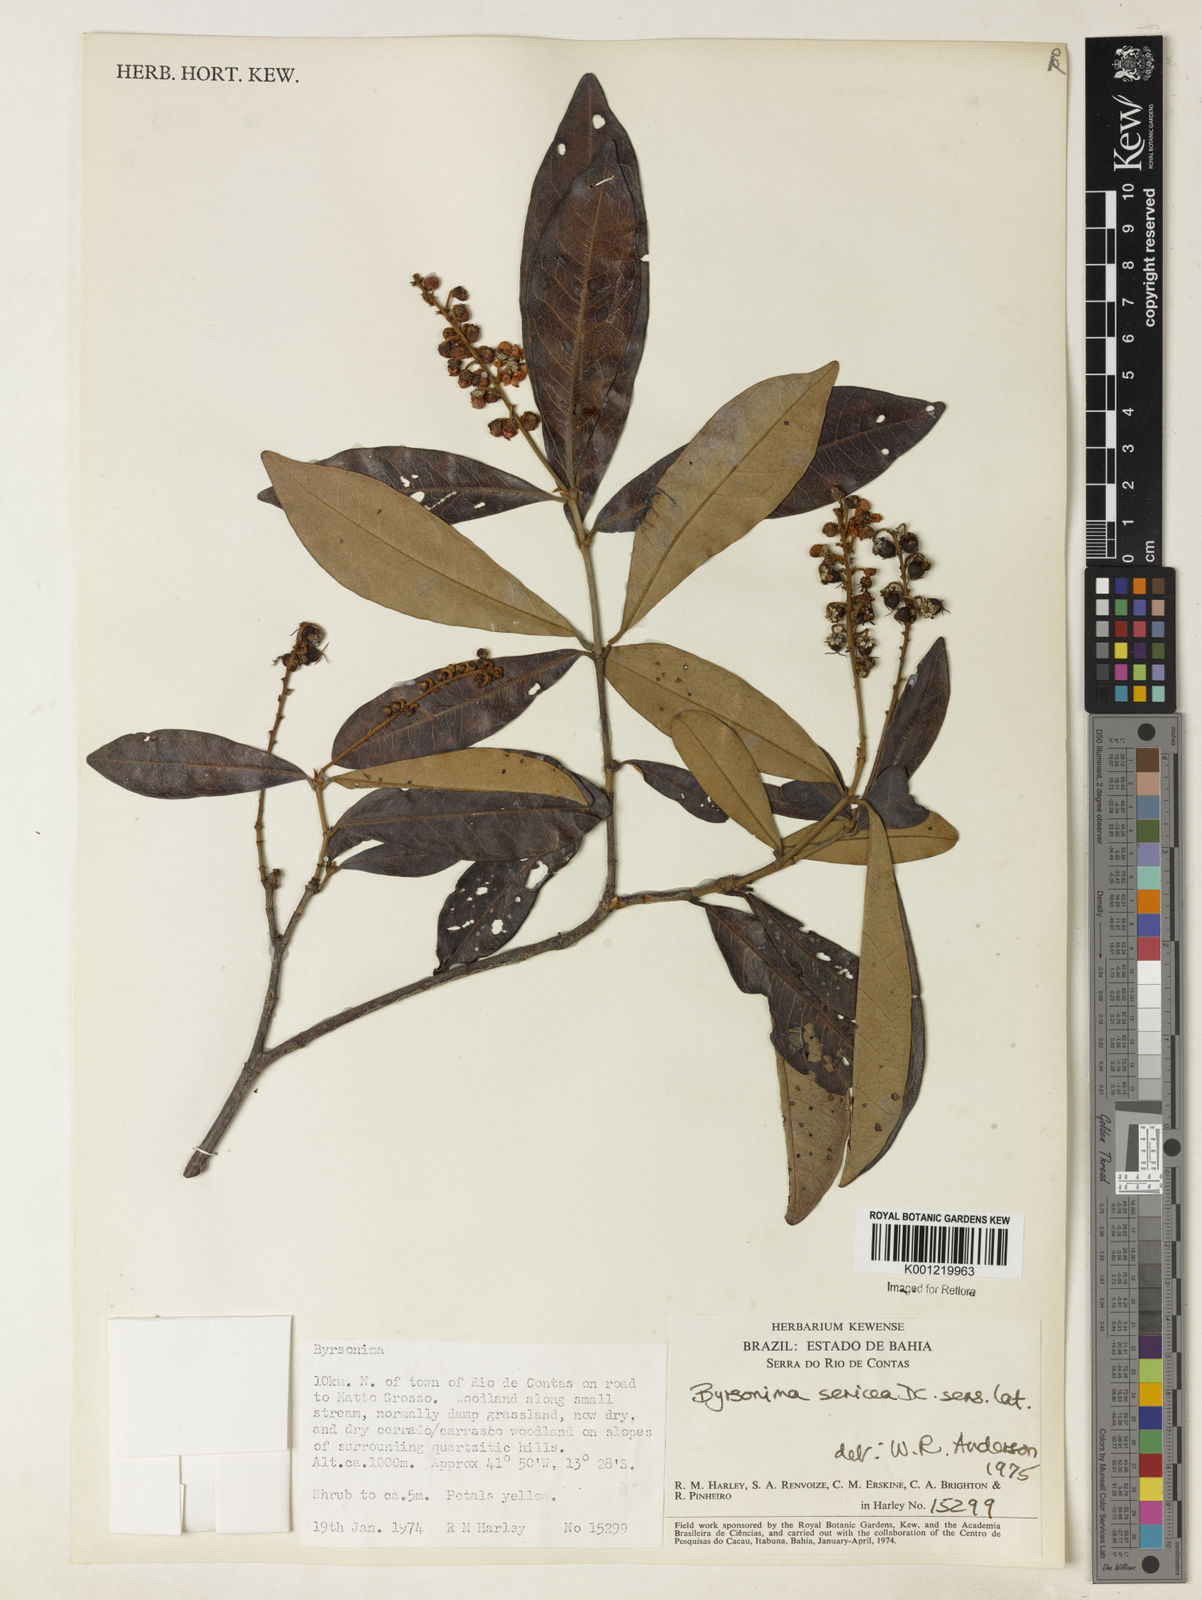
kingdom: Plantae
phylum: Tracheophyta
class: Magnoliopsida
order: Malpighiales
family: Malpighiaceae
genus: Byrsonima
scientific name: Byrsonima sericea
